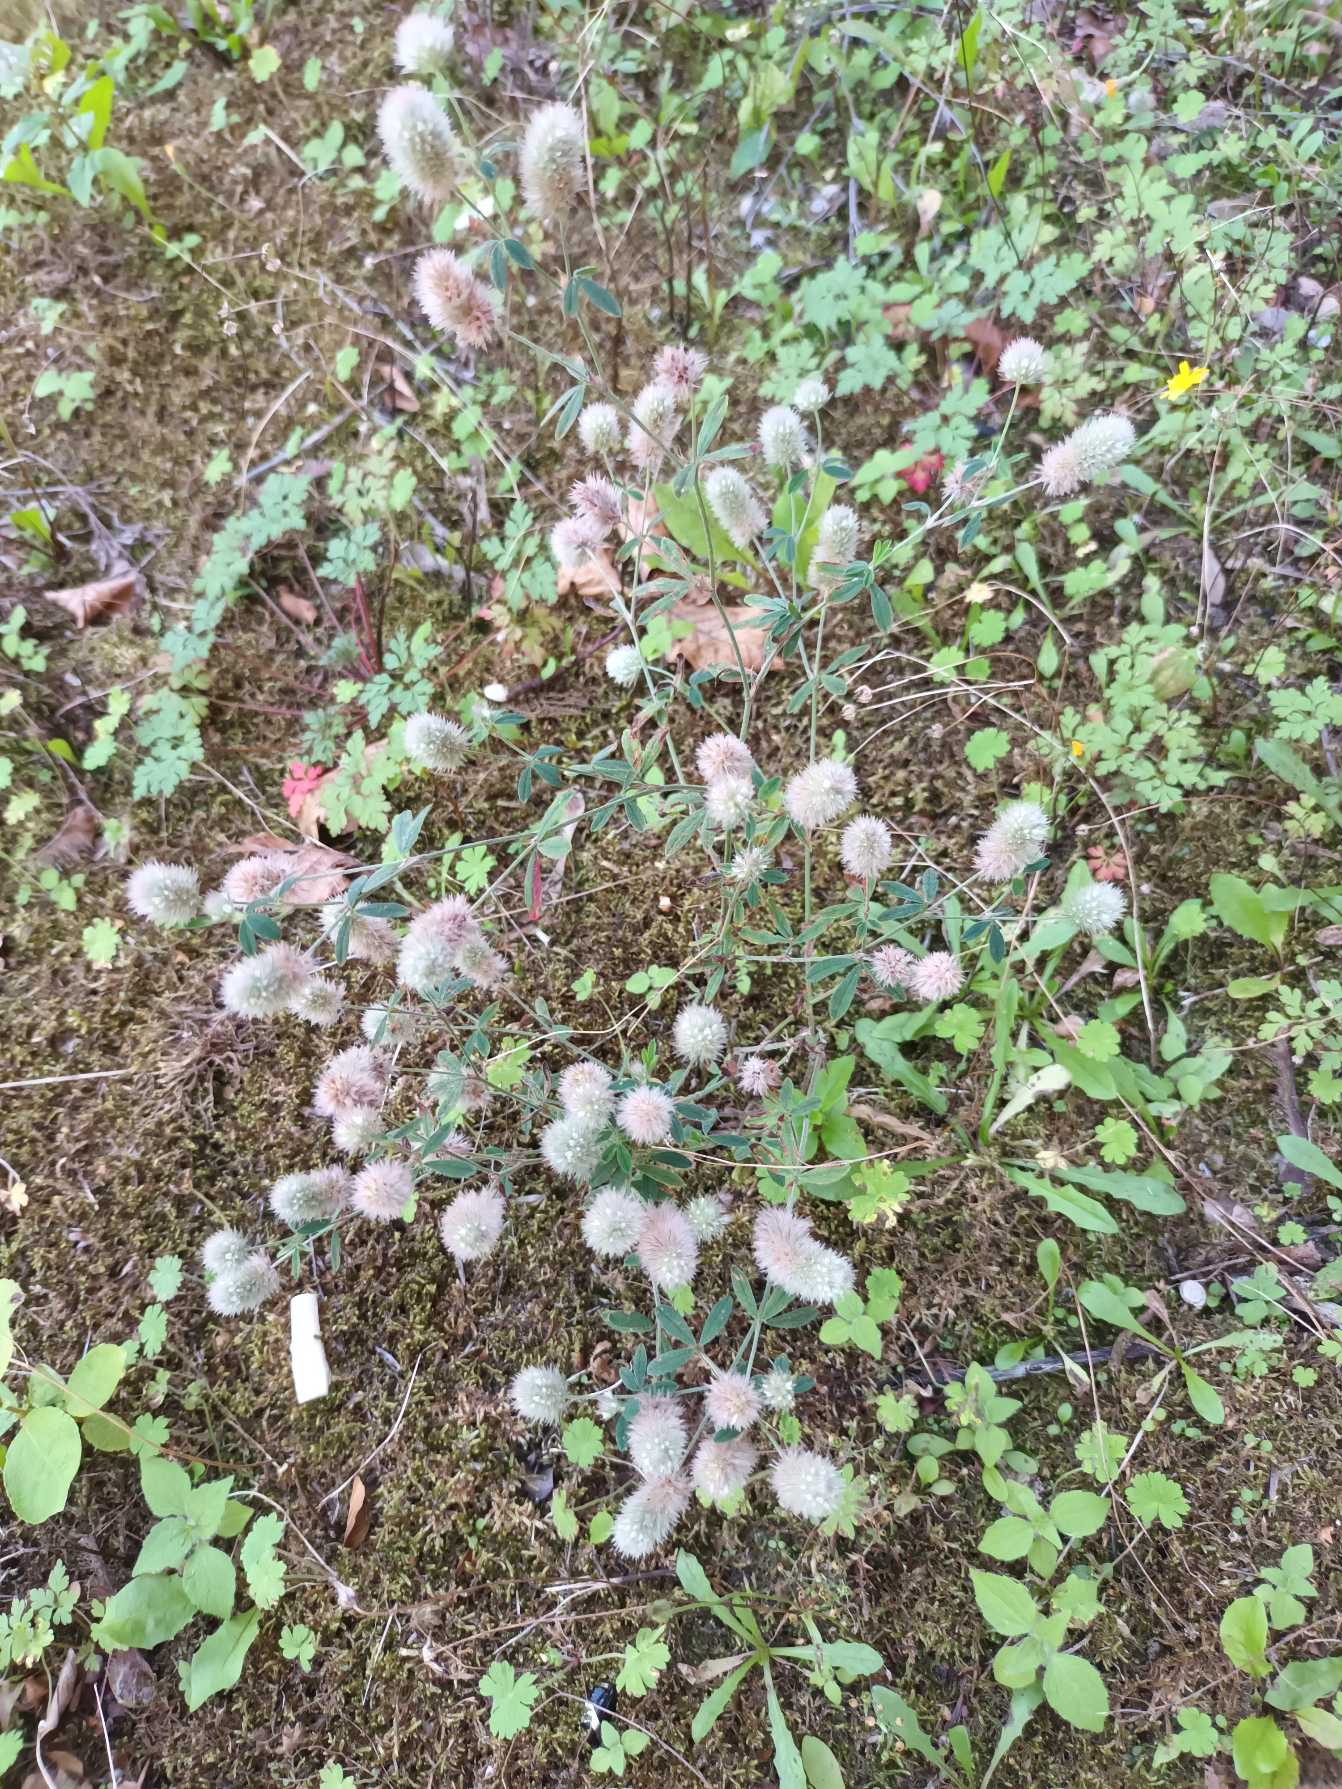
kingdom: Plantae
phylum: Tracheophyta
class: Magnoliopsida
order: Fabales
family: Fabaceae
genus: Trifolium
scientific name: Trifolium arvense
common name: Hare-kløver
